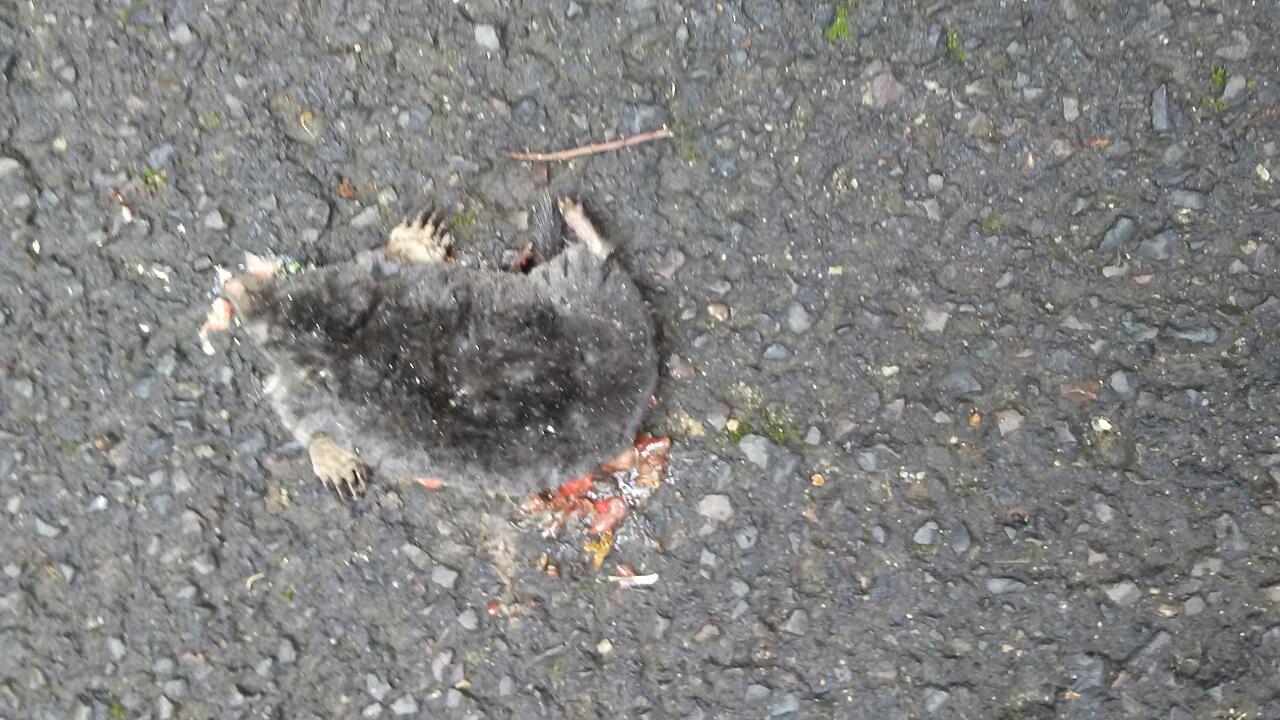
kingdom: Animalia
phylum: Chordata
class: Mammalia
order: Soricomorpha
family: Talpidae
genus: Talpa
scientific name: Talpa europaea
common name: European mole
